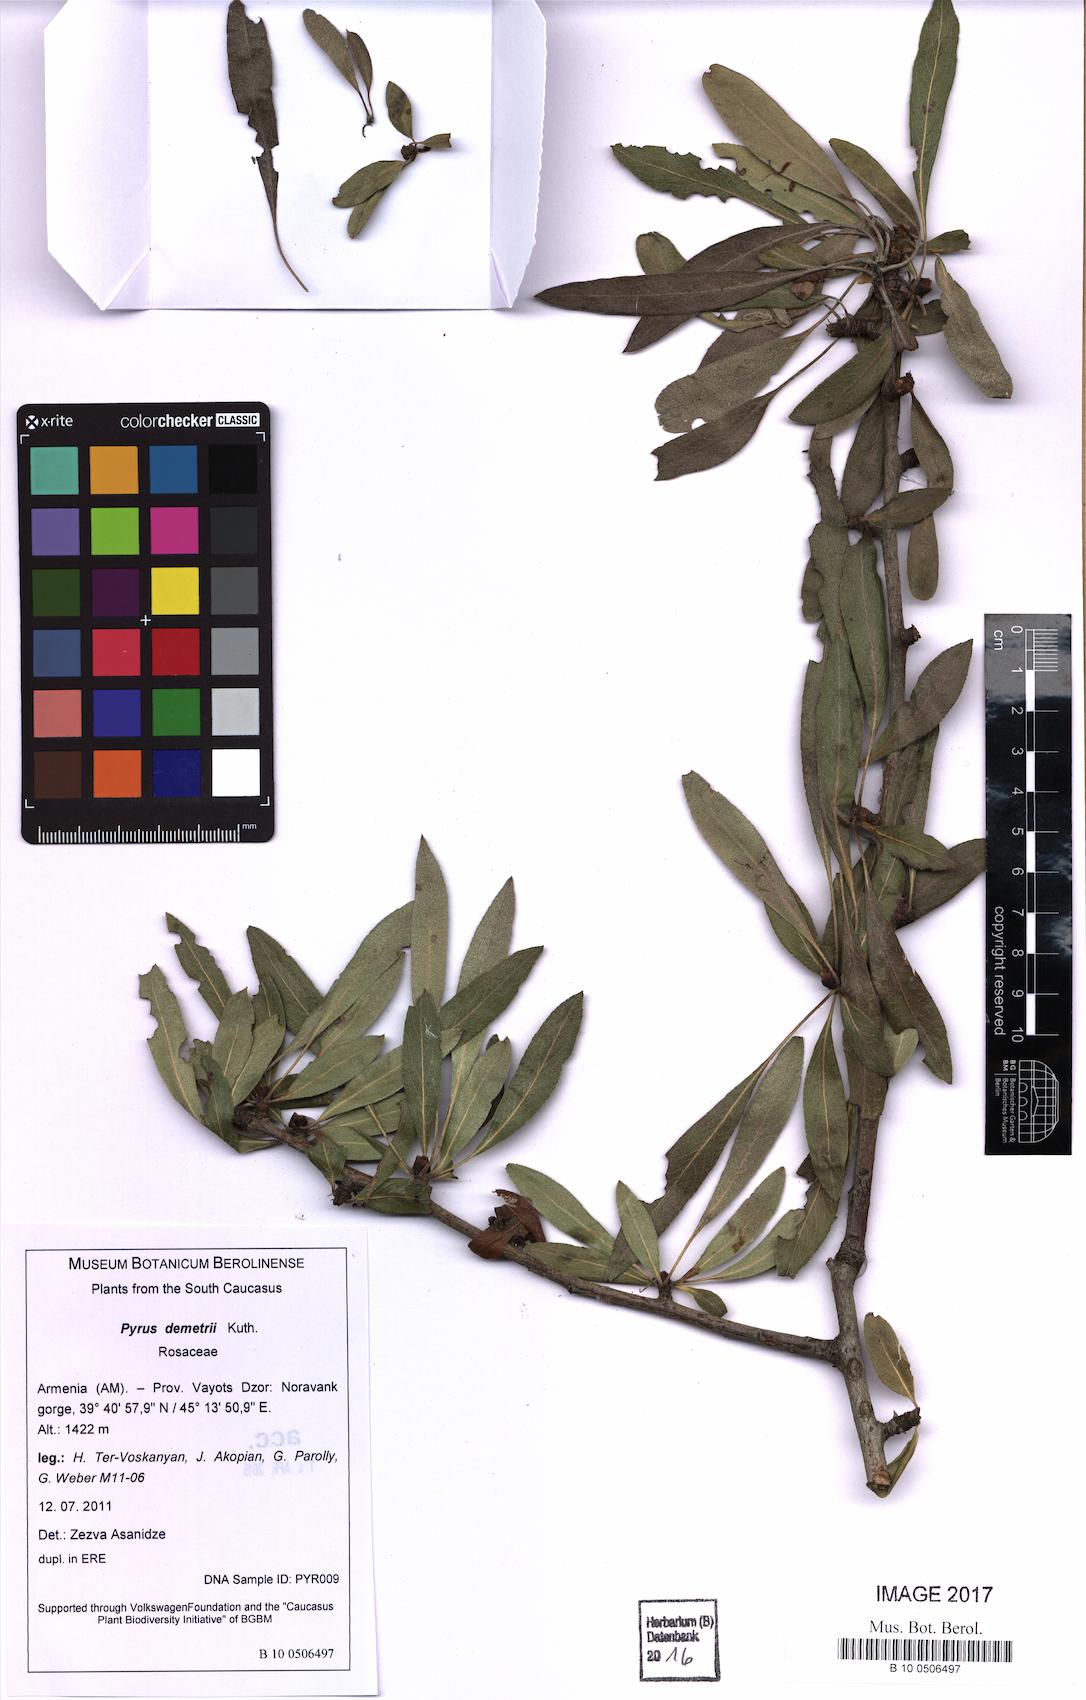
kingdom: Plantae
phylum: Tracheophyta
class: Magnoliopsida
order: Rosales
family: Rosaceae
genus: Pyrus
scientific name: Pyrus demetrii
